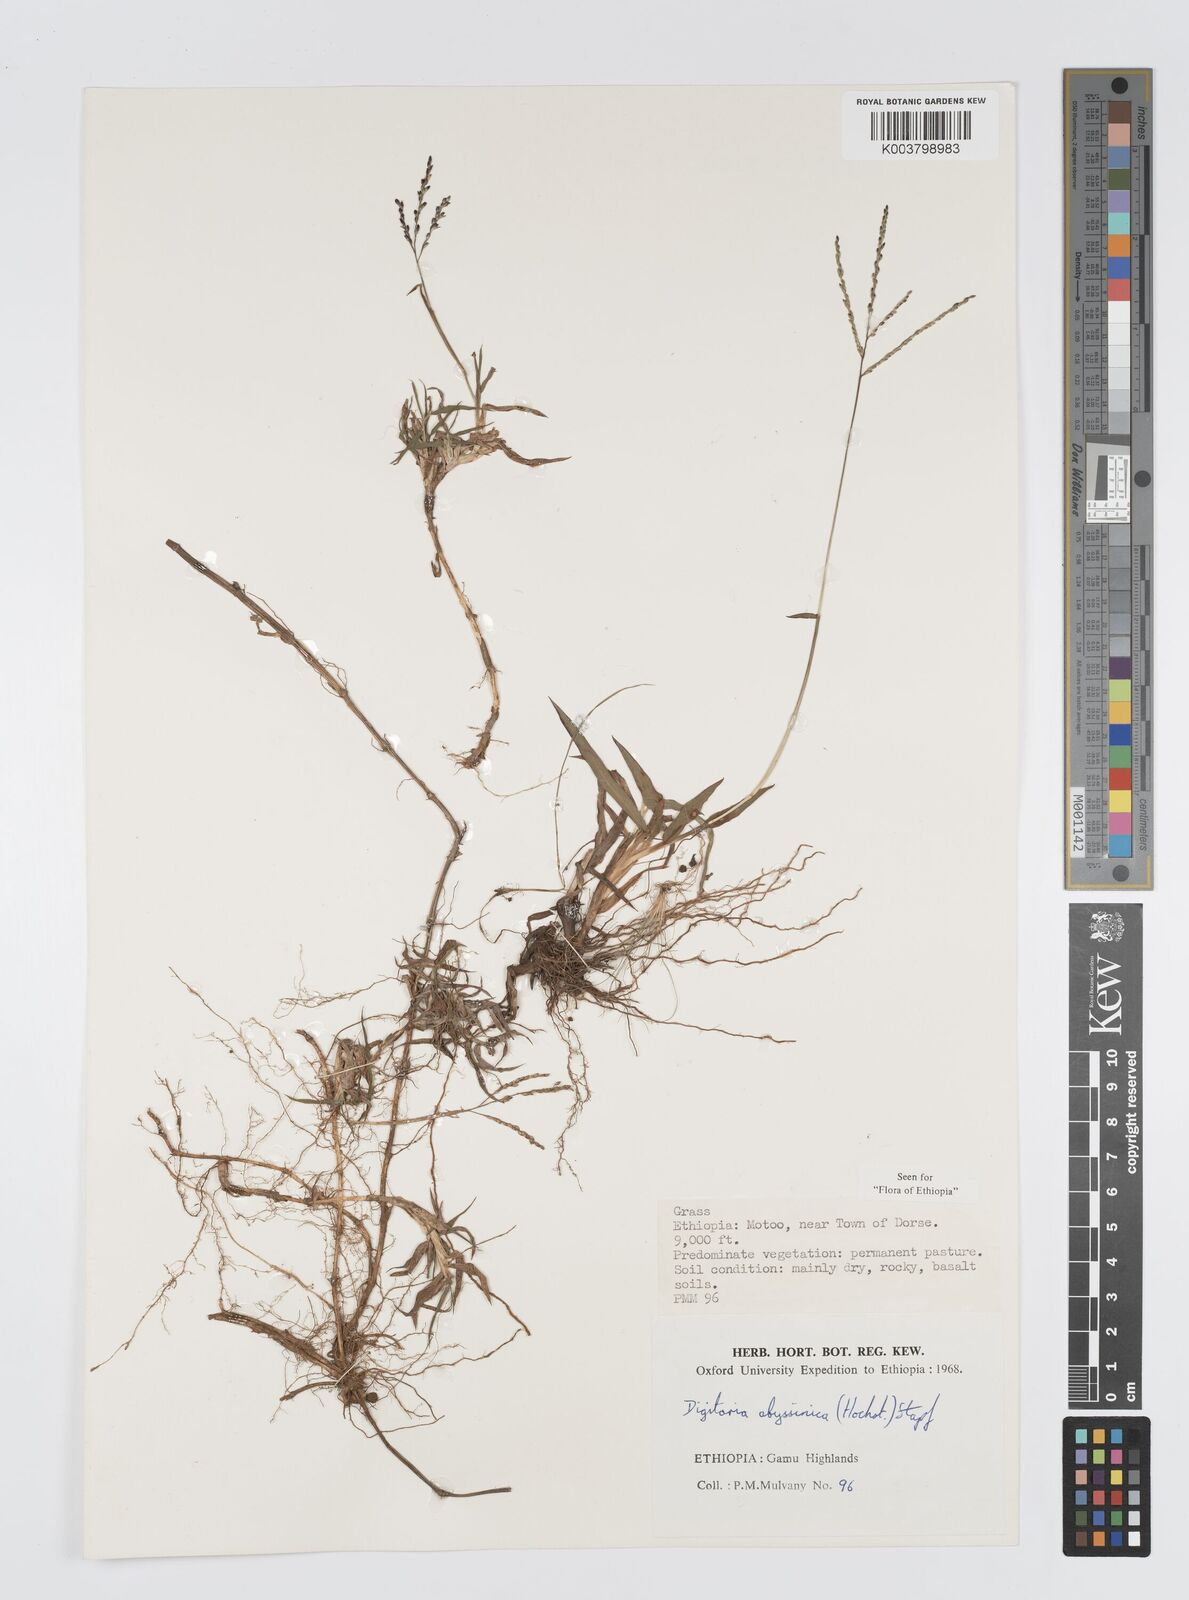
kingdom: Plantae
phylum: Tracheophyta
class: Liliopsida
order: Poales
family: Poaceae
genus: Digitaria
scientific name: Digitaria abyssinica
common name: African couchgrass
